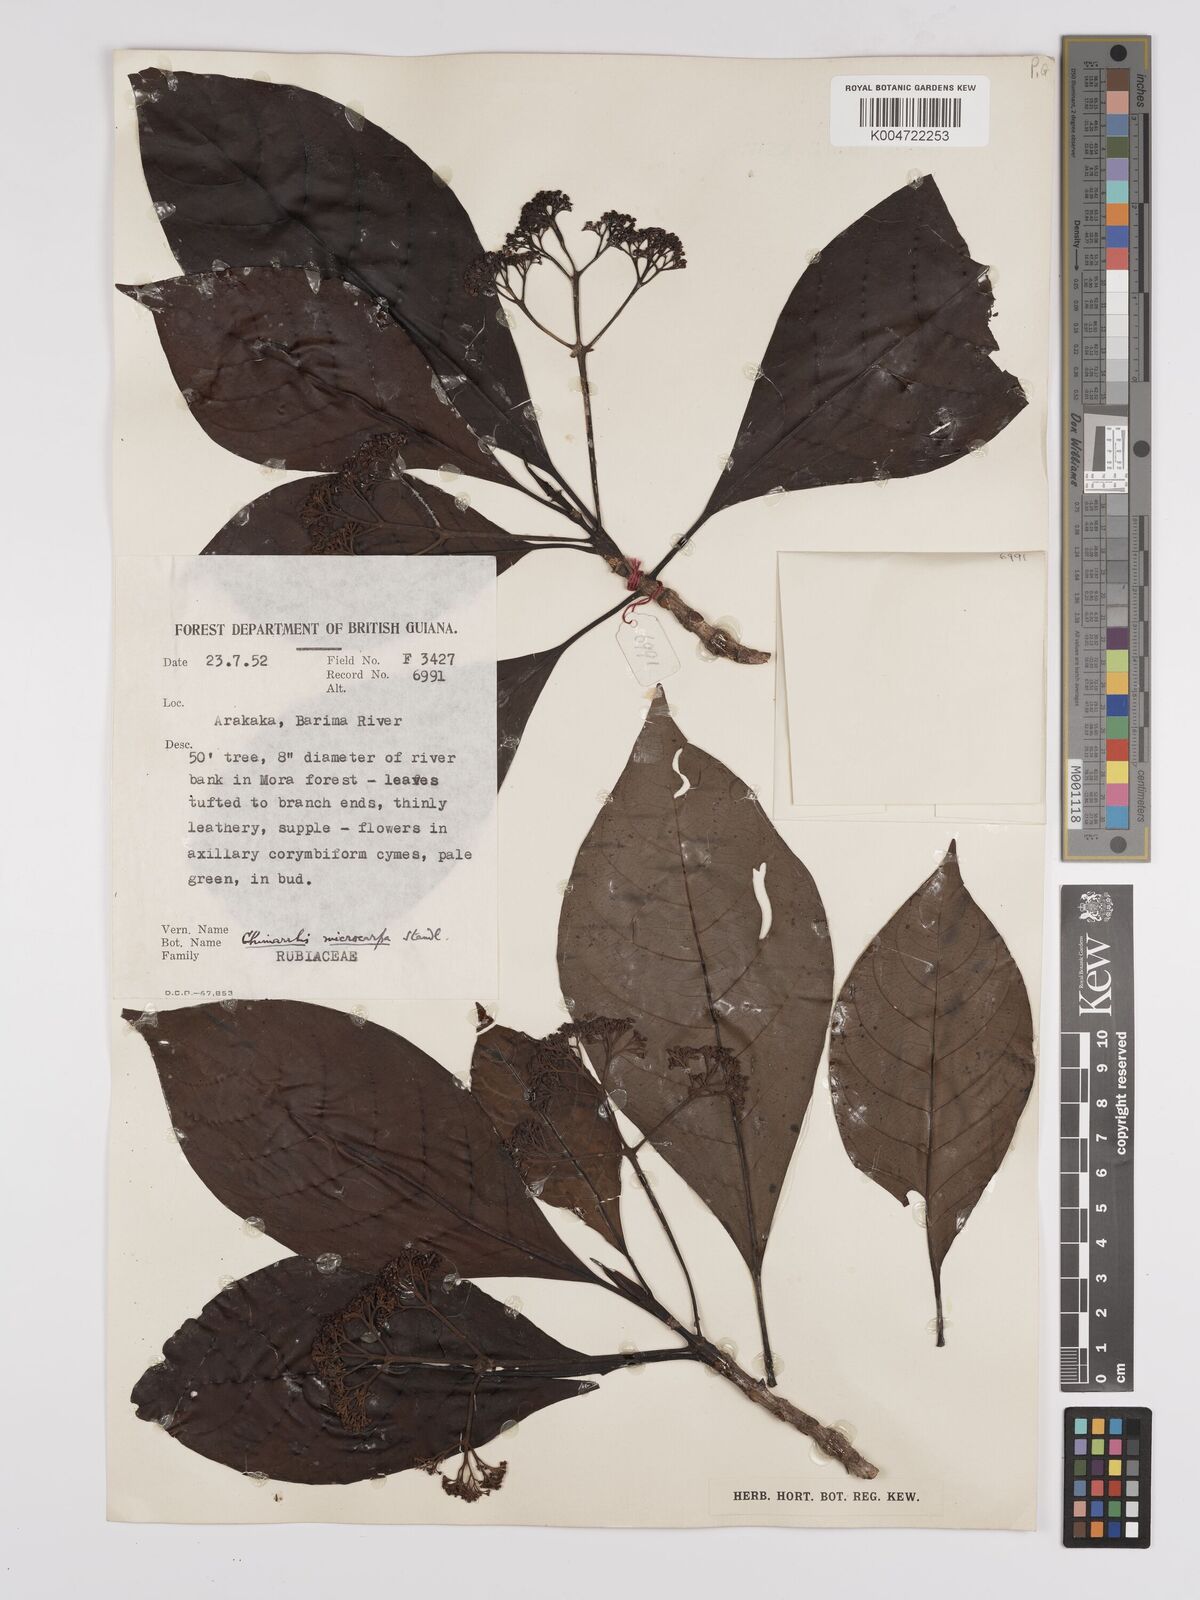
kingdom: Plantae
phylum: Tracheophyta
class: Magnoliopsida
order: Gentianales
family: Rubiaceae
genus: Chimarrhis
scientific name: Chimarrhis cymosa
